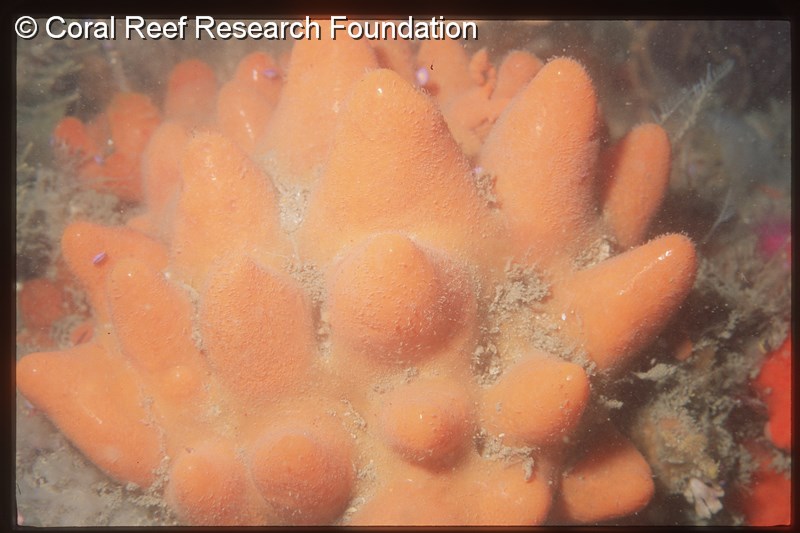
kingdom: Animalia
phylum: Chordata
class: Ascidiacea
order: Aplousobranchia
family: Pseudodistomidae
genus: Pseudodistoma
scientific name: Pseudodistoma
